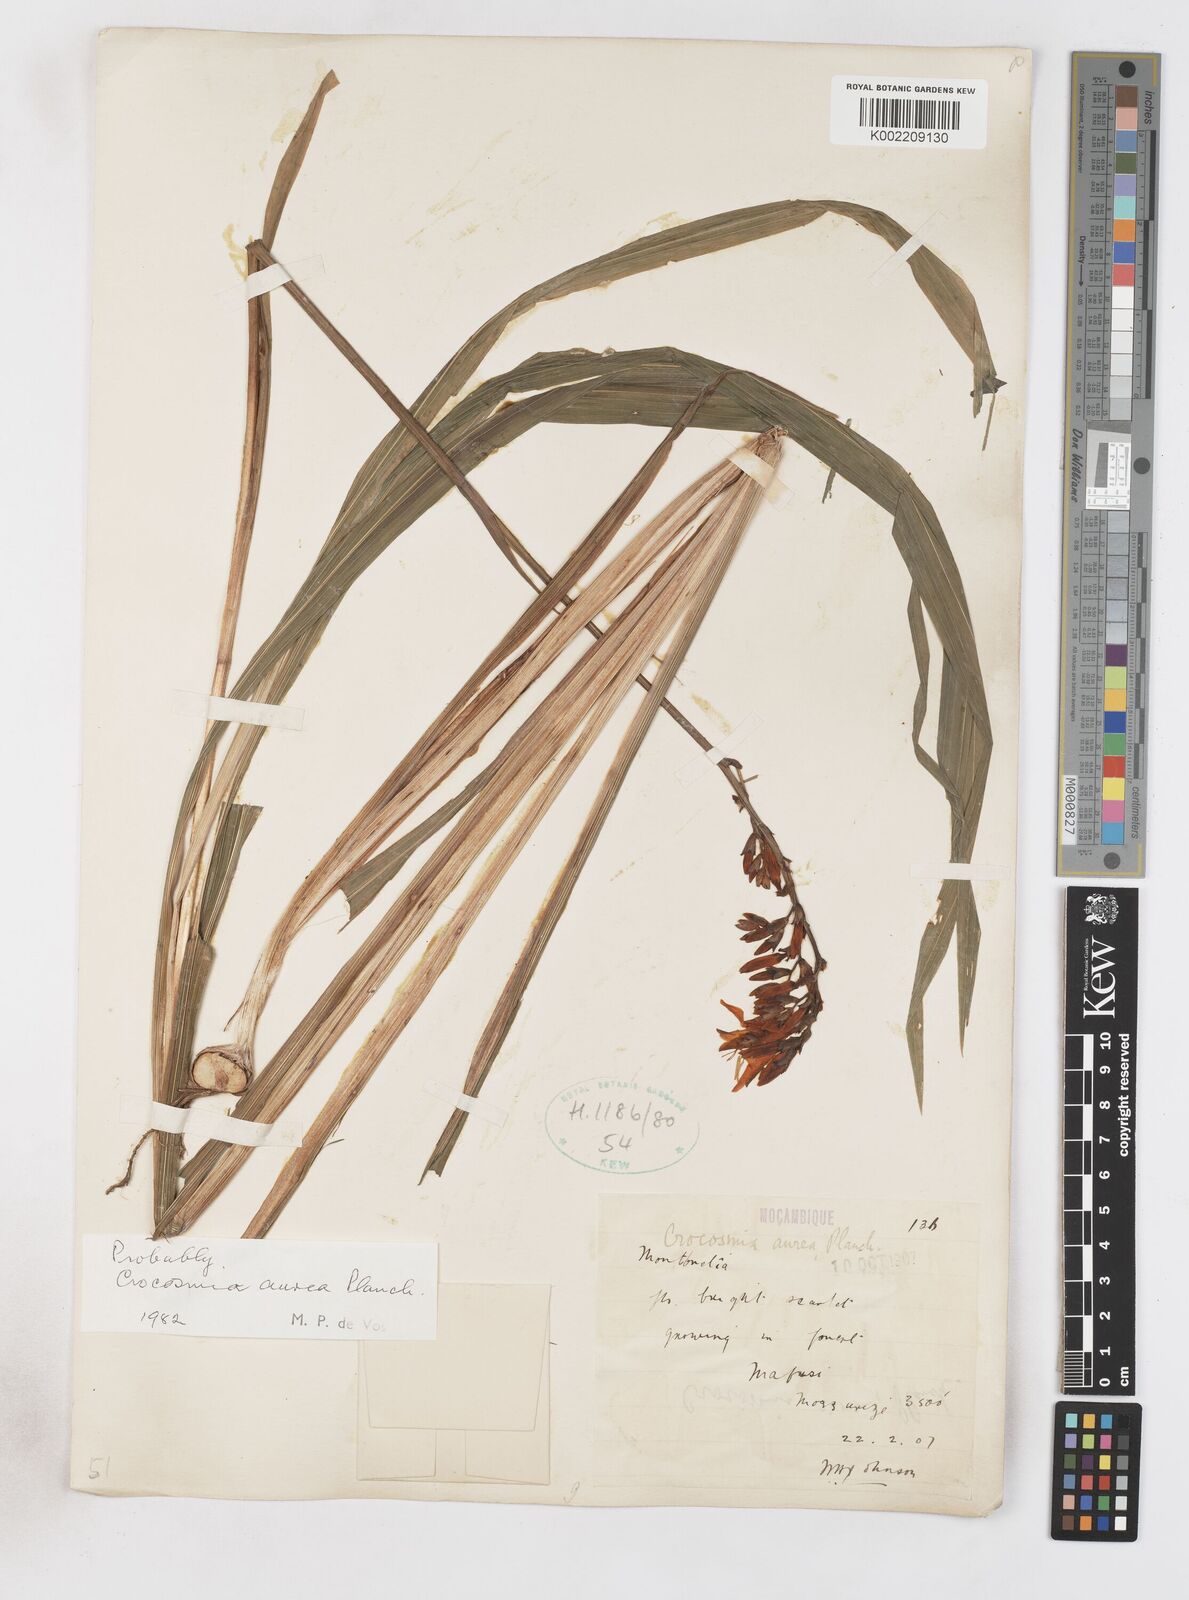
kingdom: Plantae
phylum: Tracheophyta
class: Liliopsida
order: Asparagales
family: Iridaceae
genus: Crocosmia
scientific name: Crocosmia aurea
